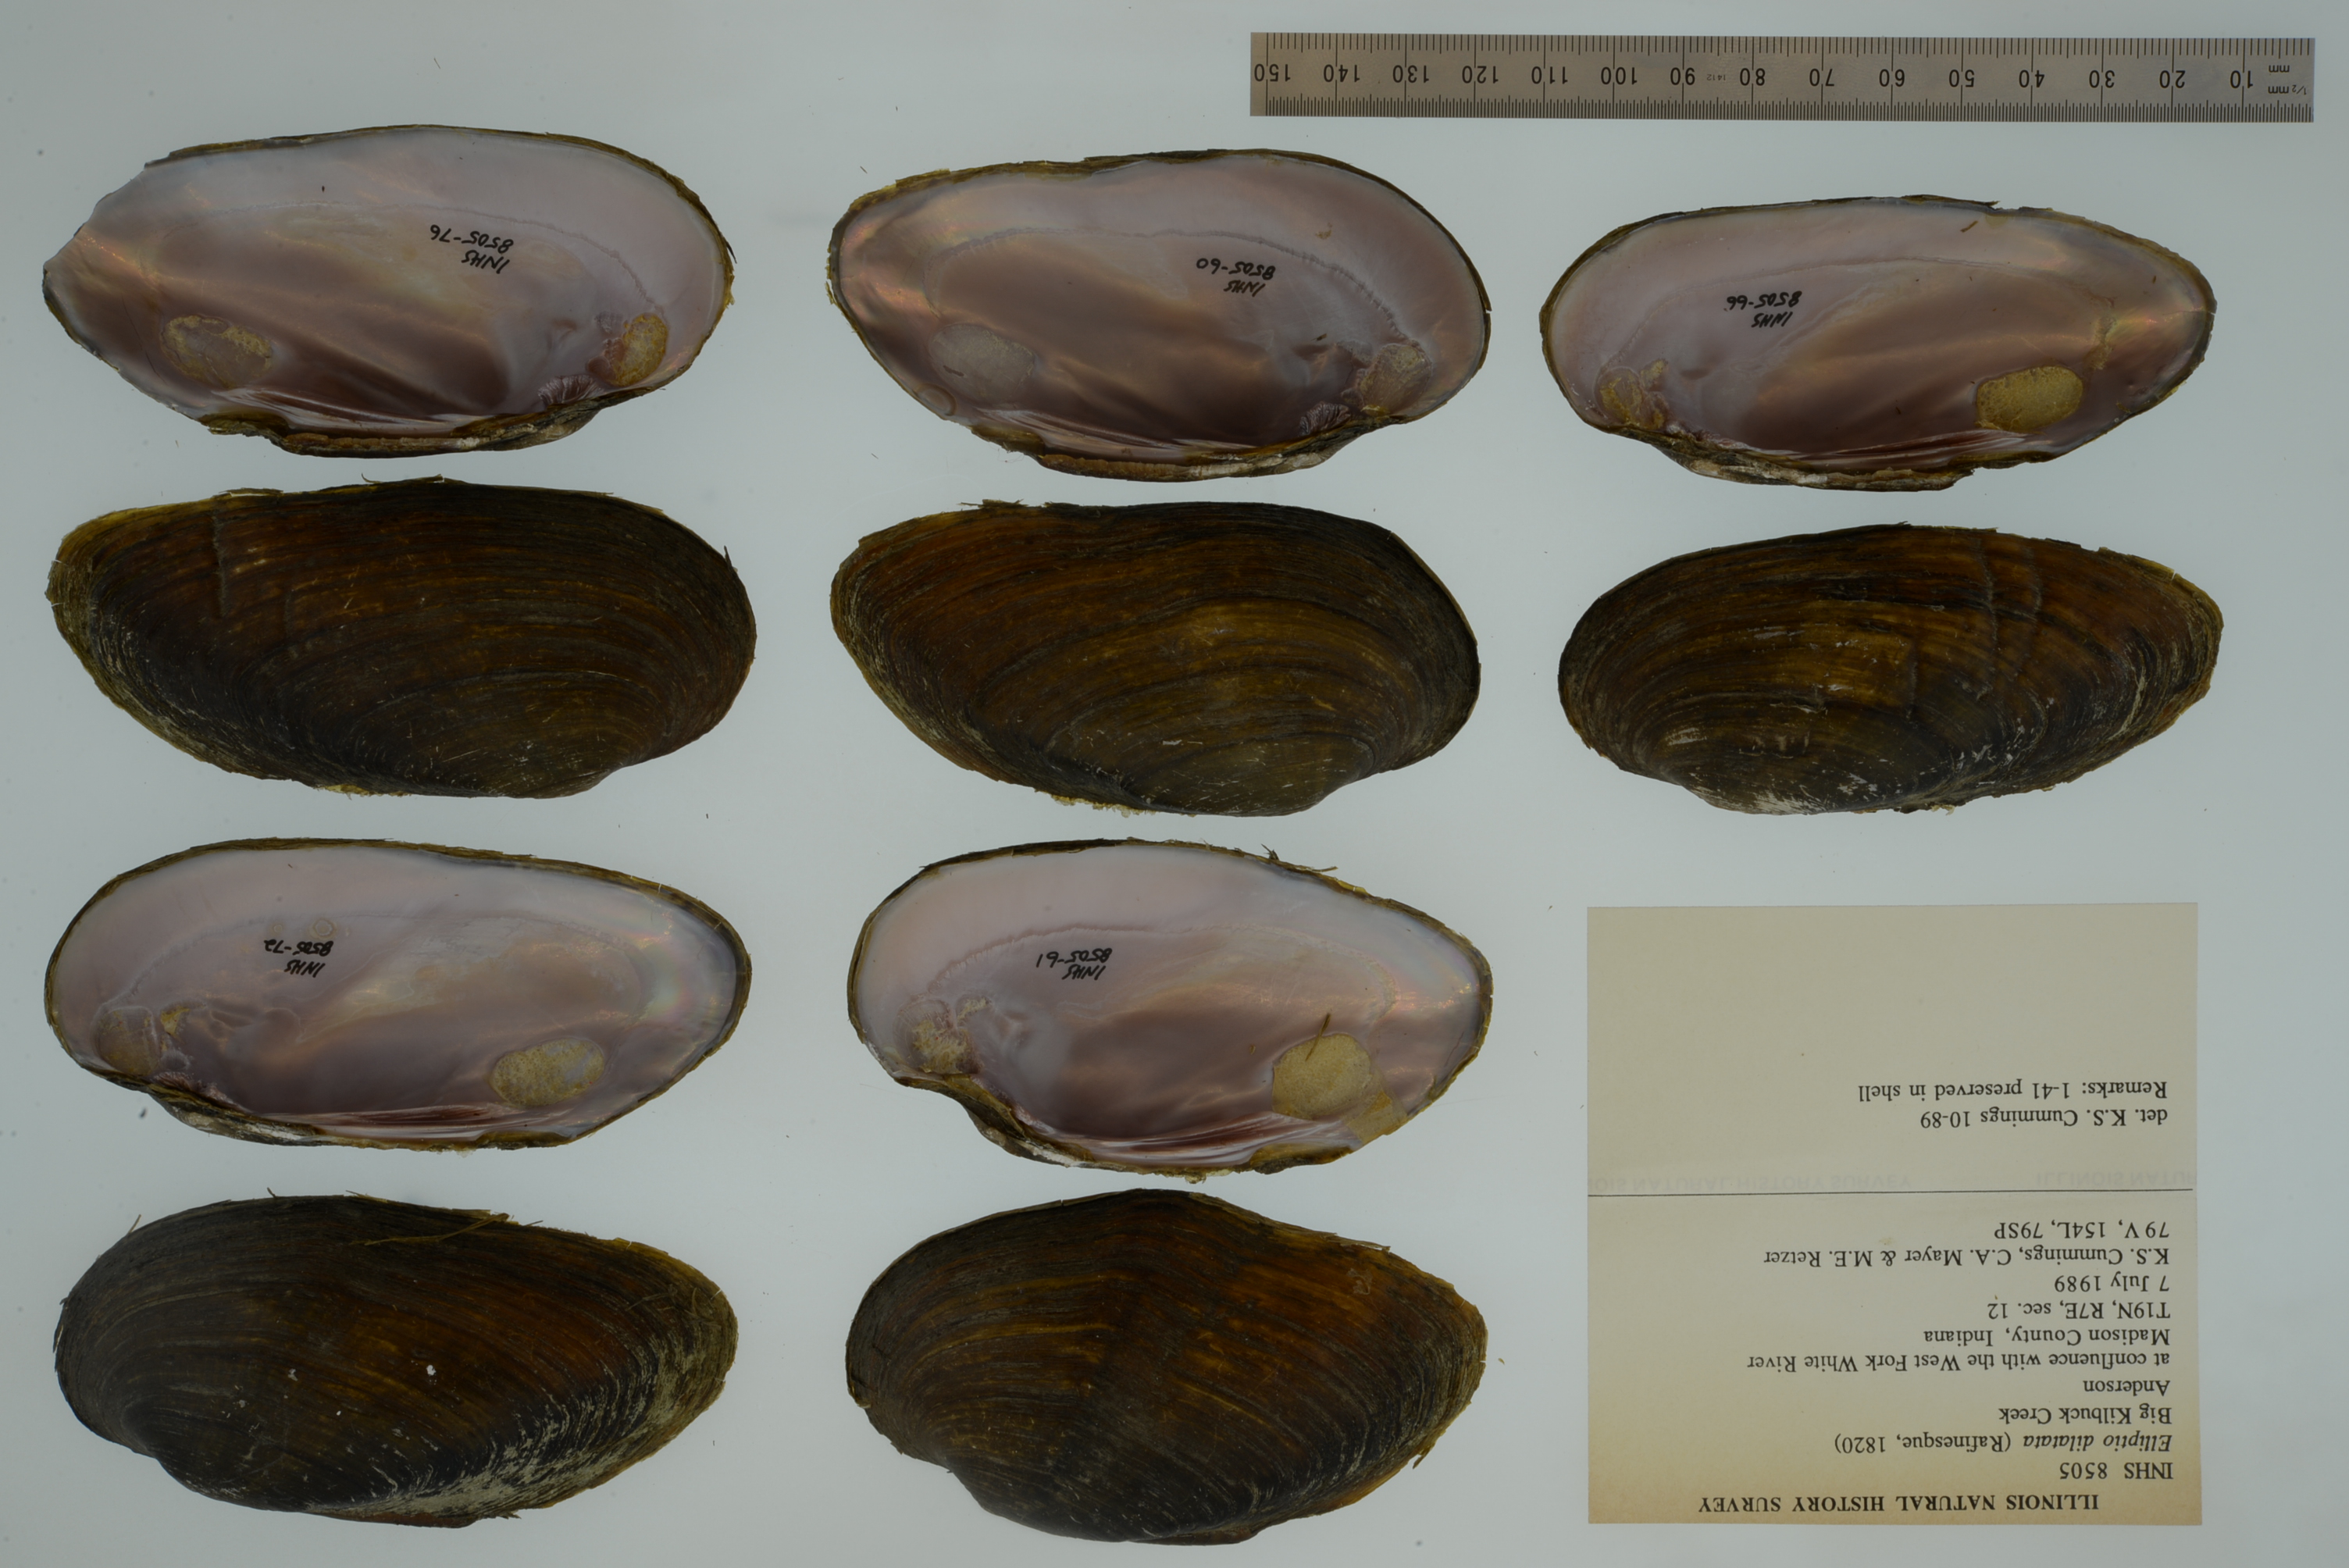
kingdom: Animalia
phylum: Mollusca
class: Bivalvia
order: Unionida
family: Unionidae
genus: Eurynia
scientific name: Eurynia dilatata
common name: Spike
